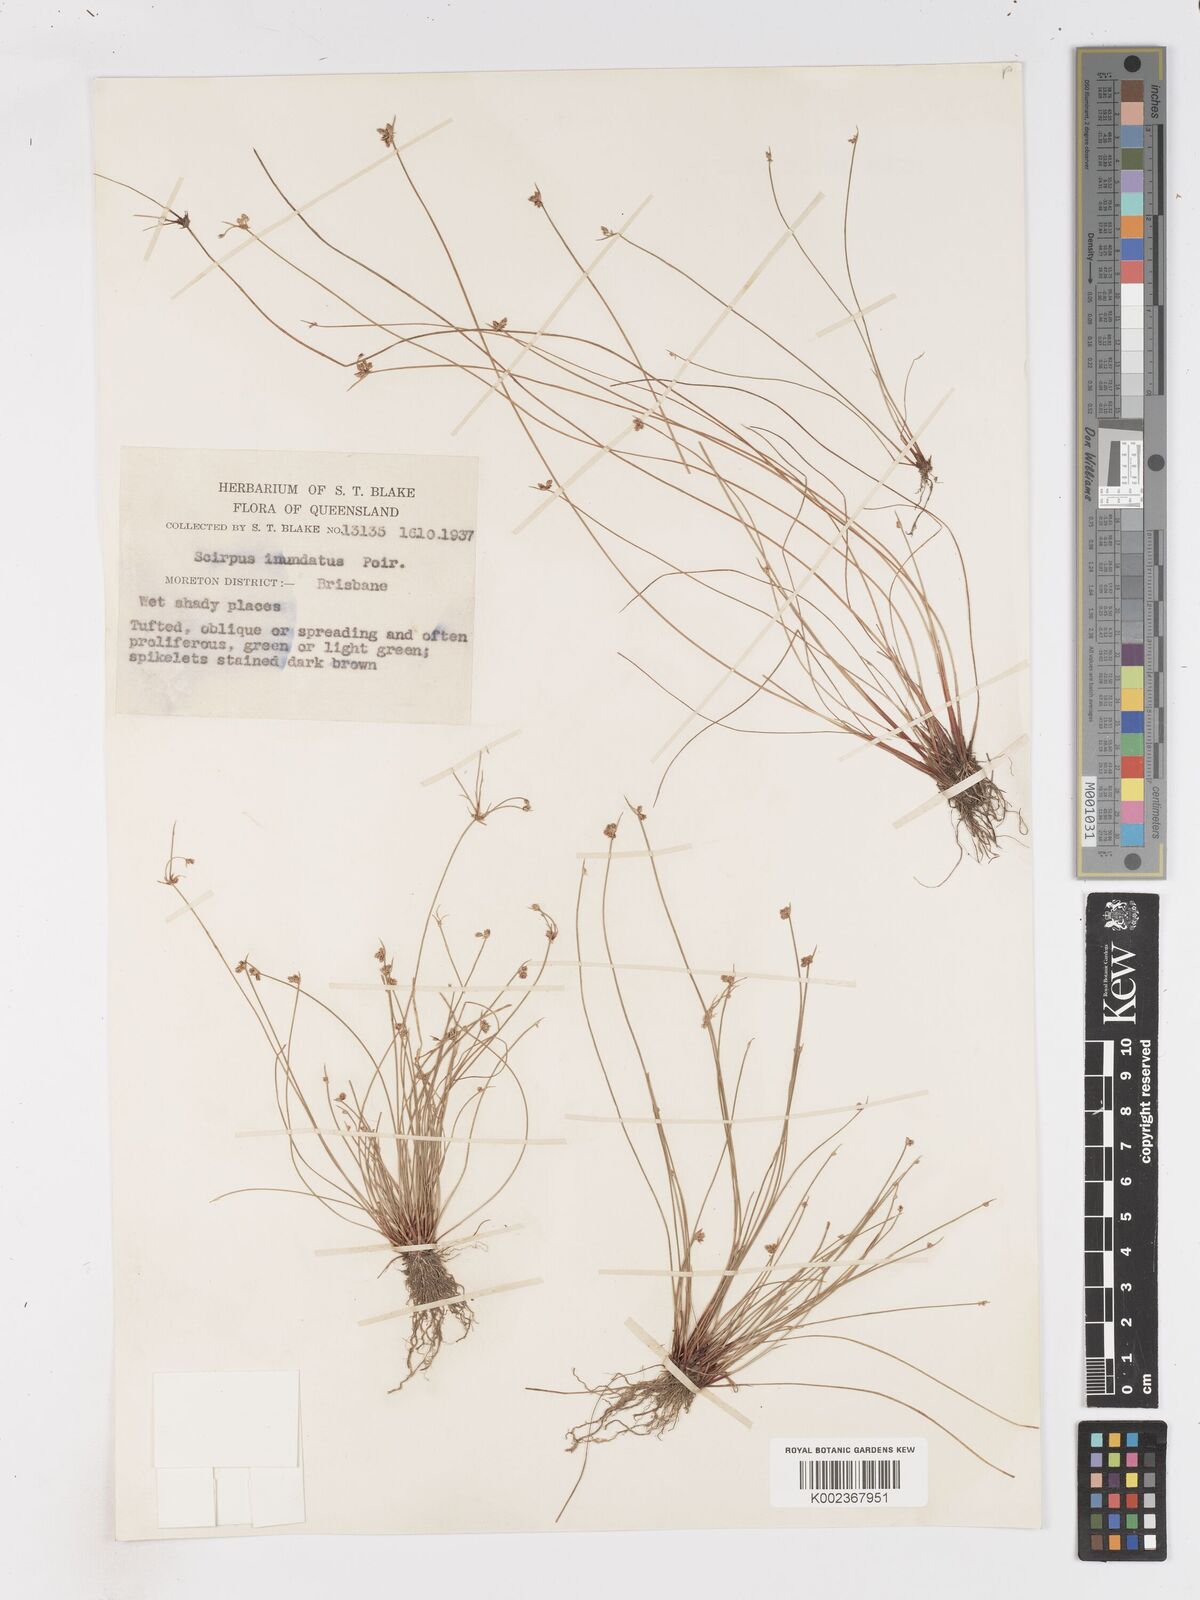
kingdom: Plantae
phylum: Tracheophyta
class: Liliopsida
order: Poales
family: Cyperaceae
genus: Isolepis
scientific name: Isolepis inundata
